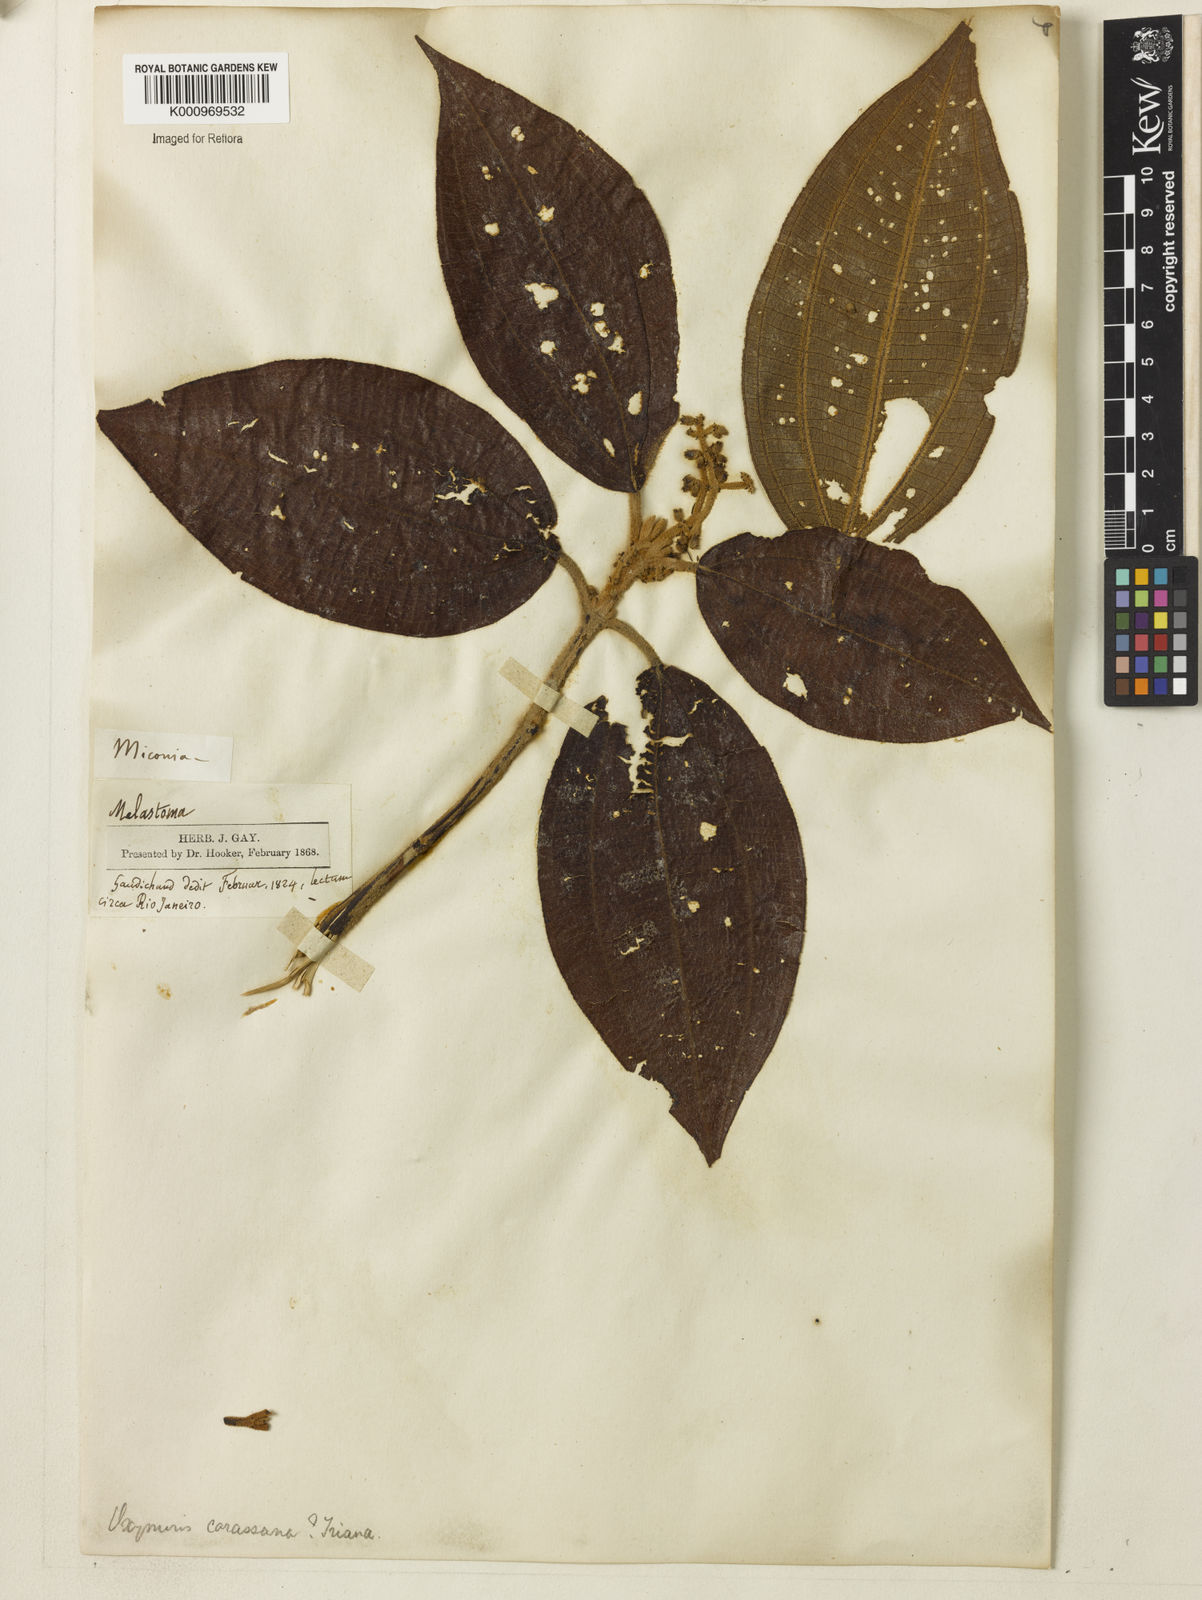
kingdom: Plantae
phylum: Tracheophyta
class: Magnoliopsida
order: Myrtales
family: Melastomataceae
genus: Miconia
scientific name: Miconia sublanata
